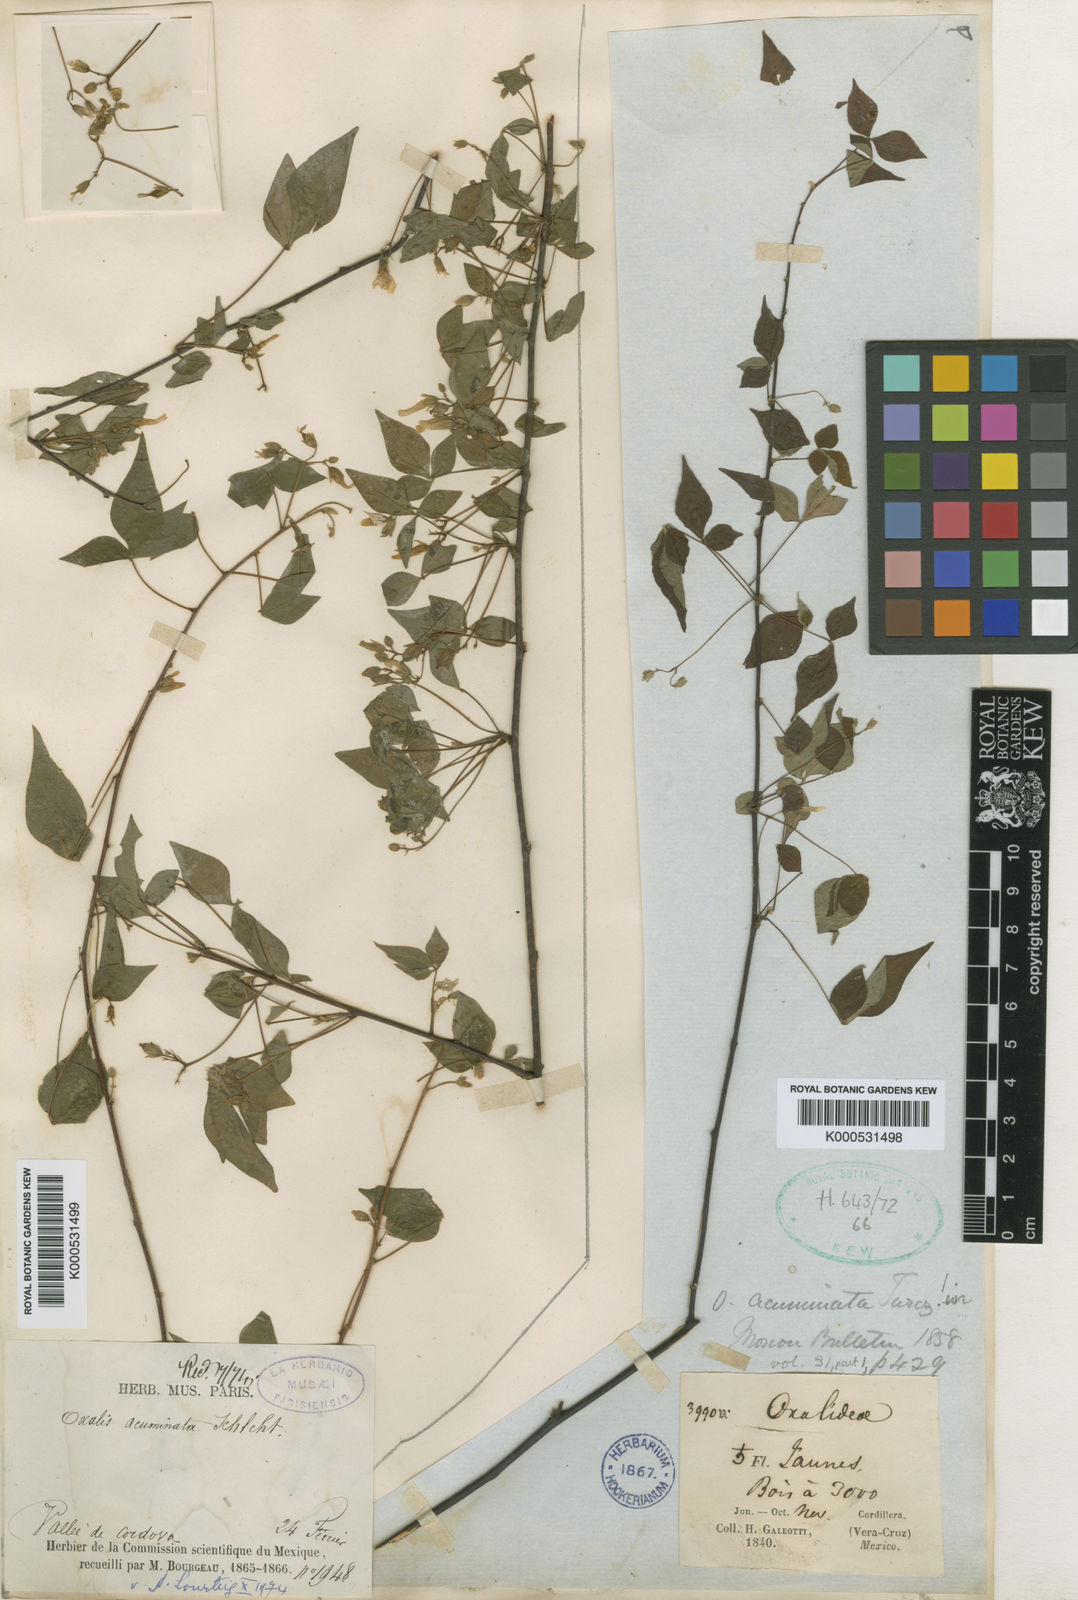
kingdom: Plantae
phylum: Tracheophyta
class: Magnoliopsida
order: Oxalidales
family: Oxalidaceae
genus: Oxalis
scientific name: Oxalis rhombifolia
